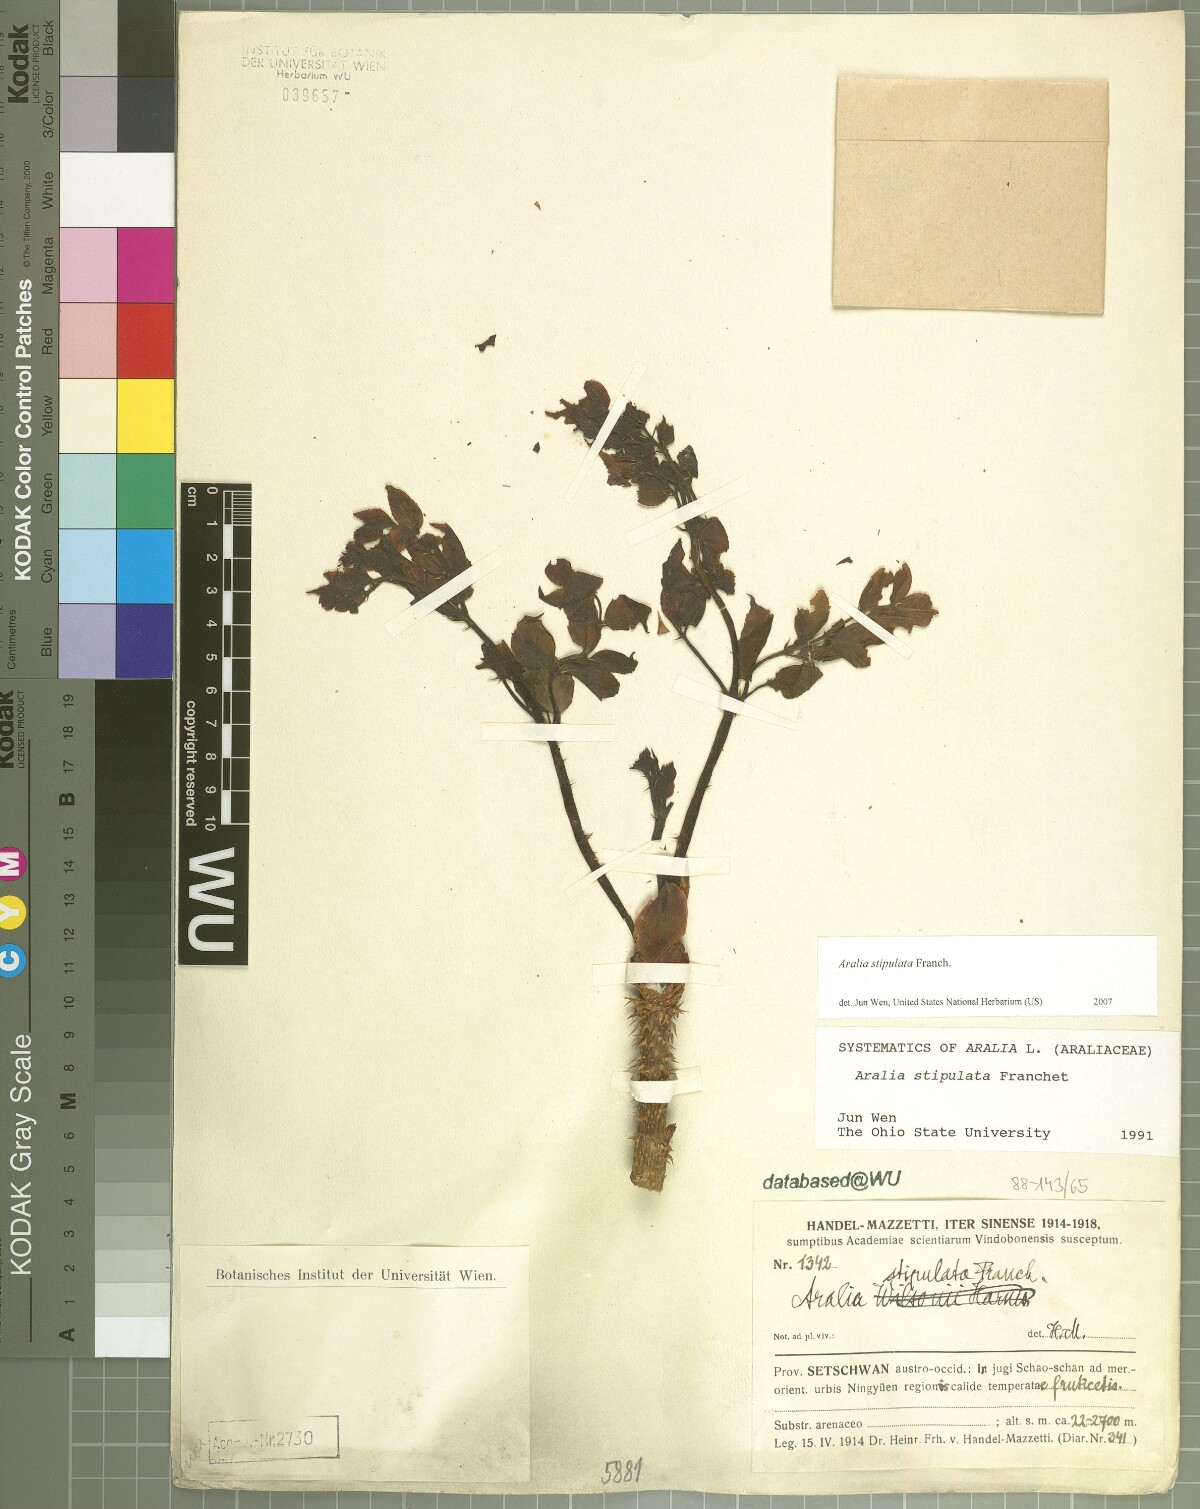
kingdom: Plantae
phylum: Tracheophyta
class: Magnoliopsida
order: Apiales
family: Araliaceae
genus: Aralia
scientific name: Aralia stipulata
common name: Chinese angelica-tree
